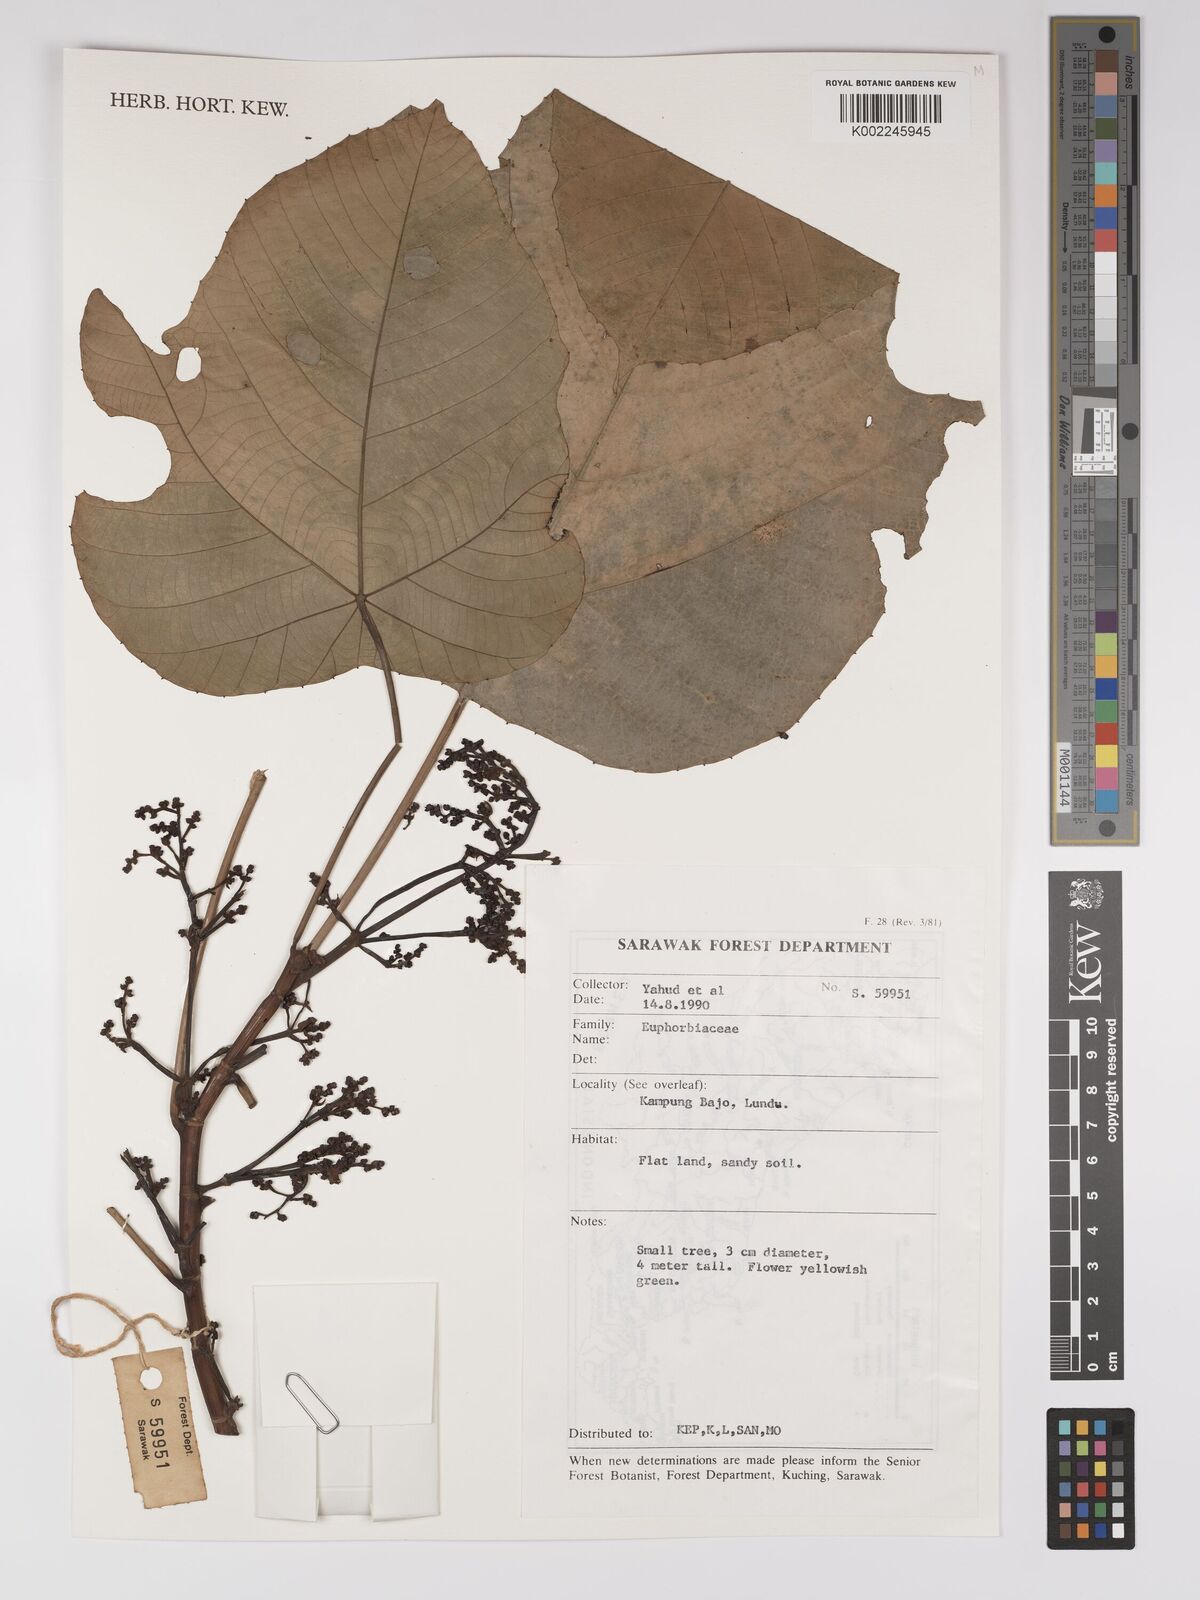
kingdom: Plantae
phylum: Tracheophyta
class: Magnoliopsida
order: Malpighiales
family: Euphorbiaceae
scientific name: Euphorbiaceae
